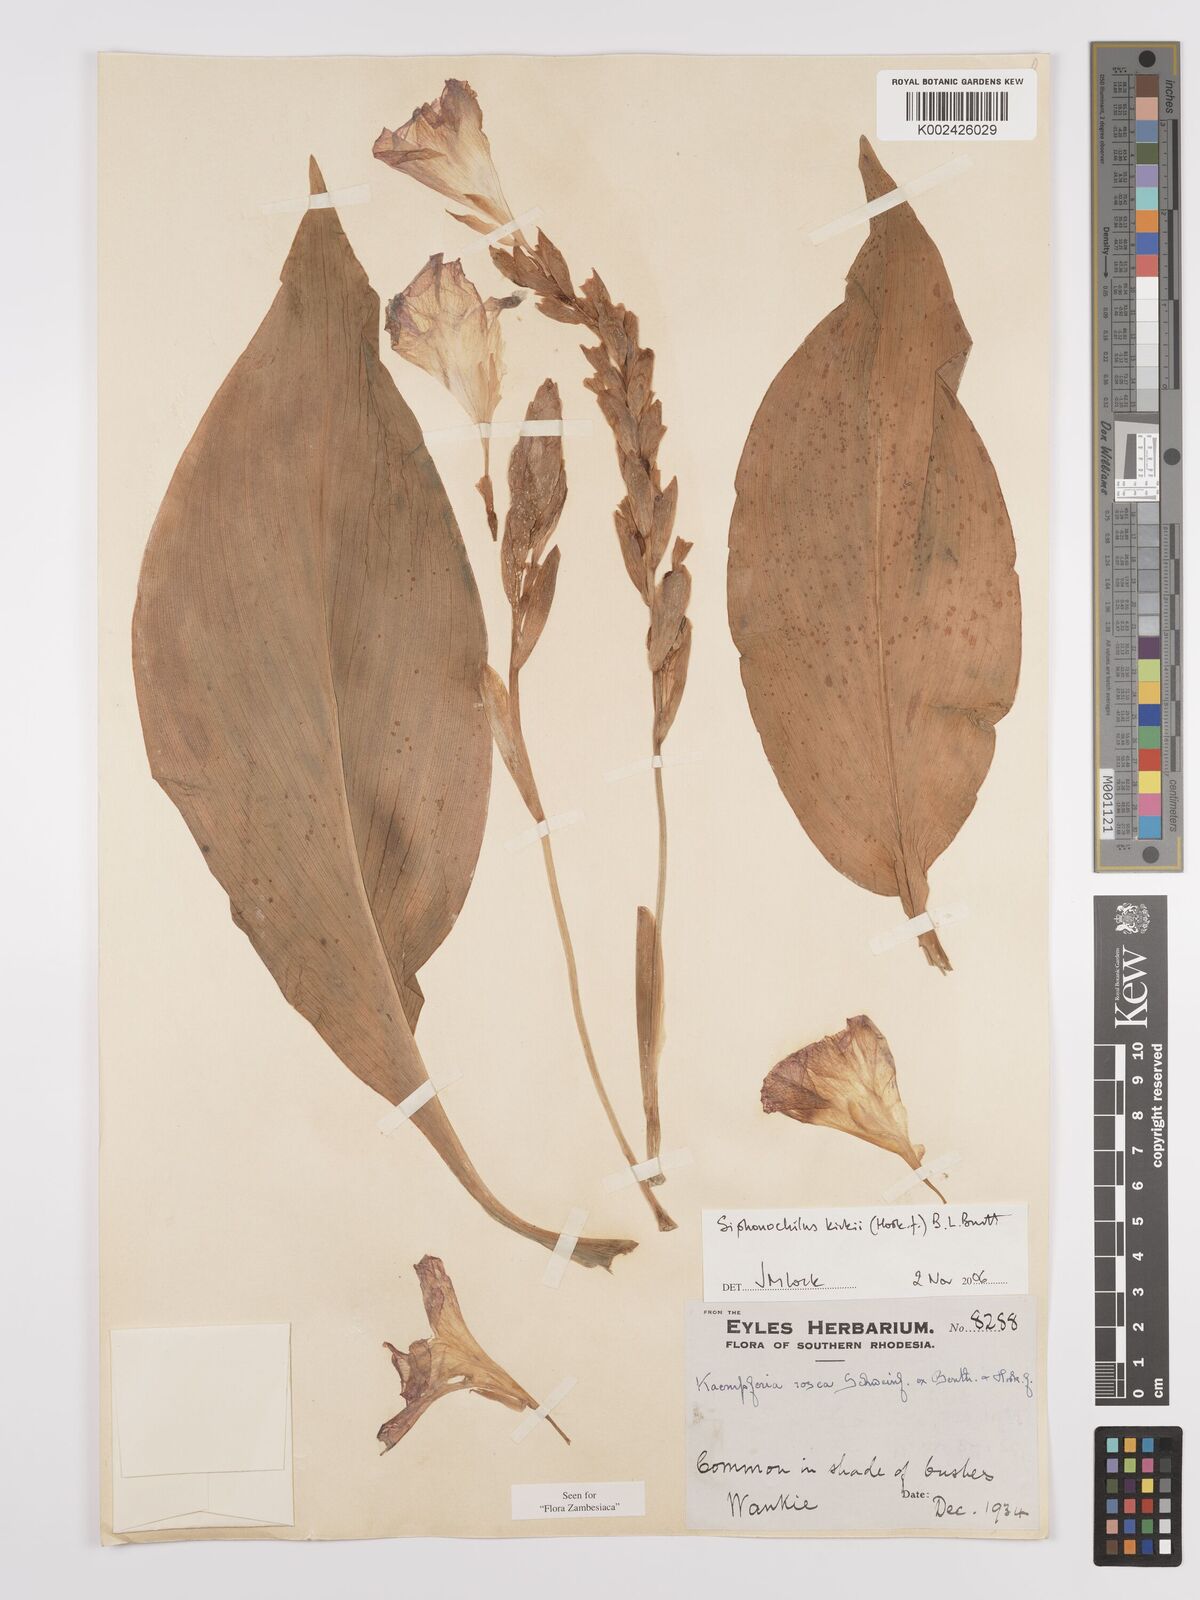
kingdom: Plantae
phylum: Tracheophyta
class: Liliopsida
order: Zingiberales
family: Zingiberaceae
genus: Siphonochilus
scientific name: Siphonochilus kirkii
